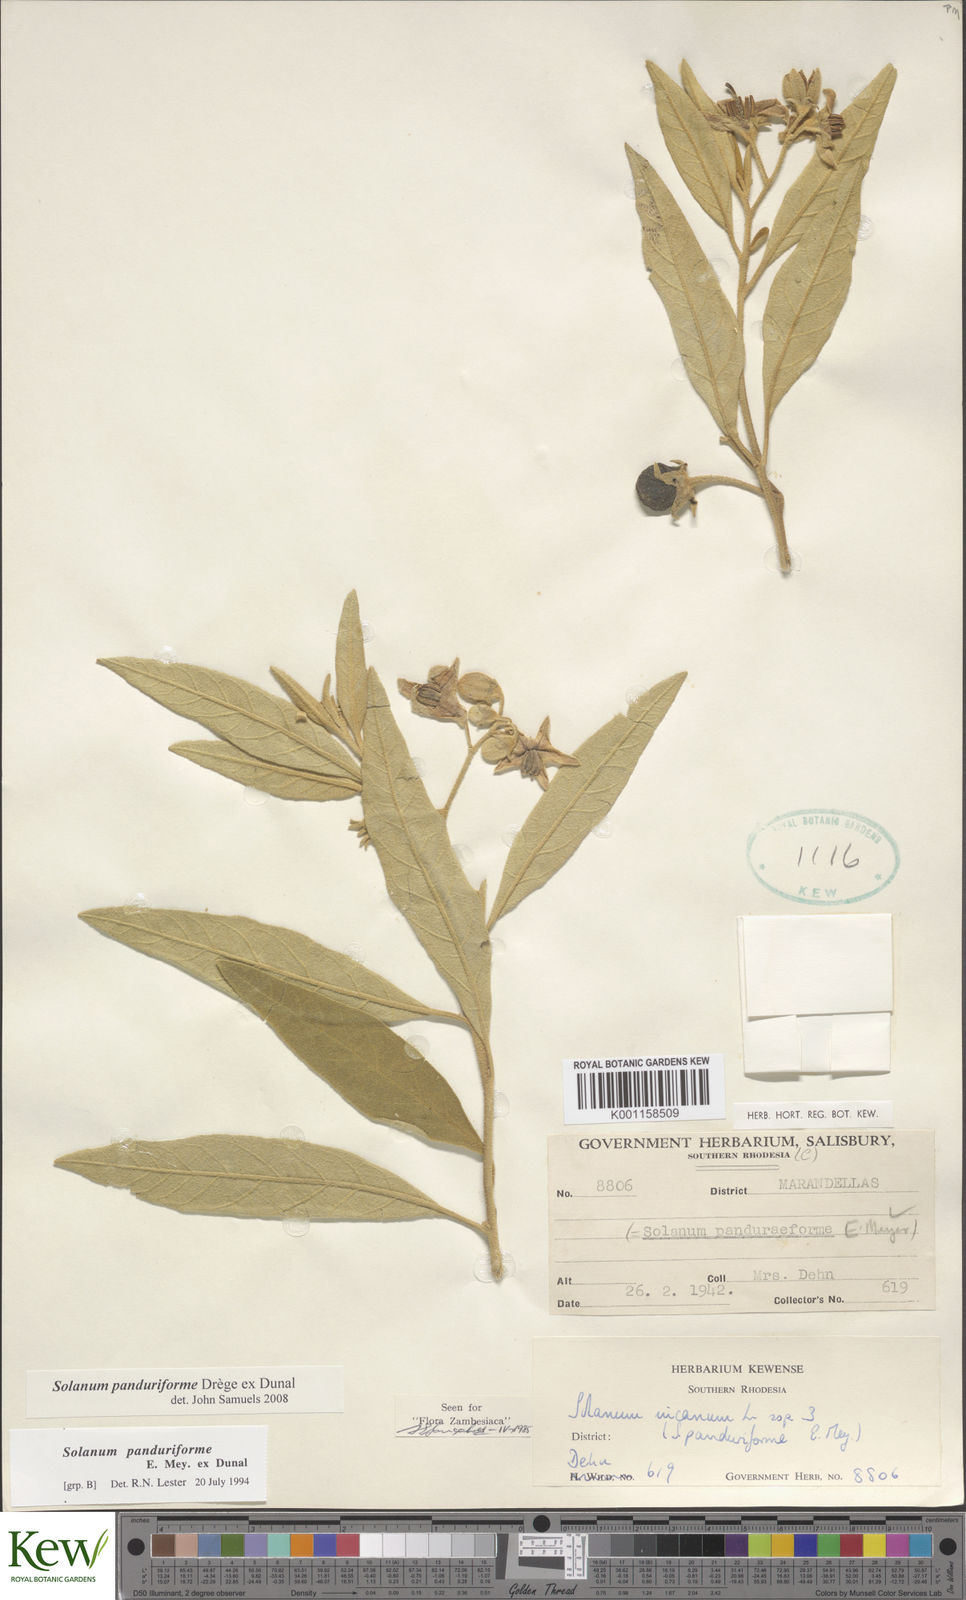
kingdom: Plantae
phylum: Tracheophyta
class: Magnoliopsida
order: Solanales
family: Solanaceae
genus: Solanum
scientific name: Solanum campylacanthum
